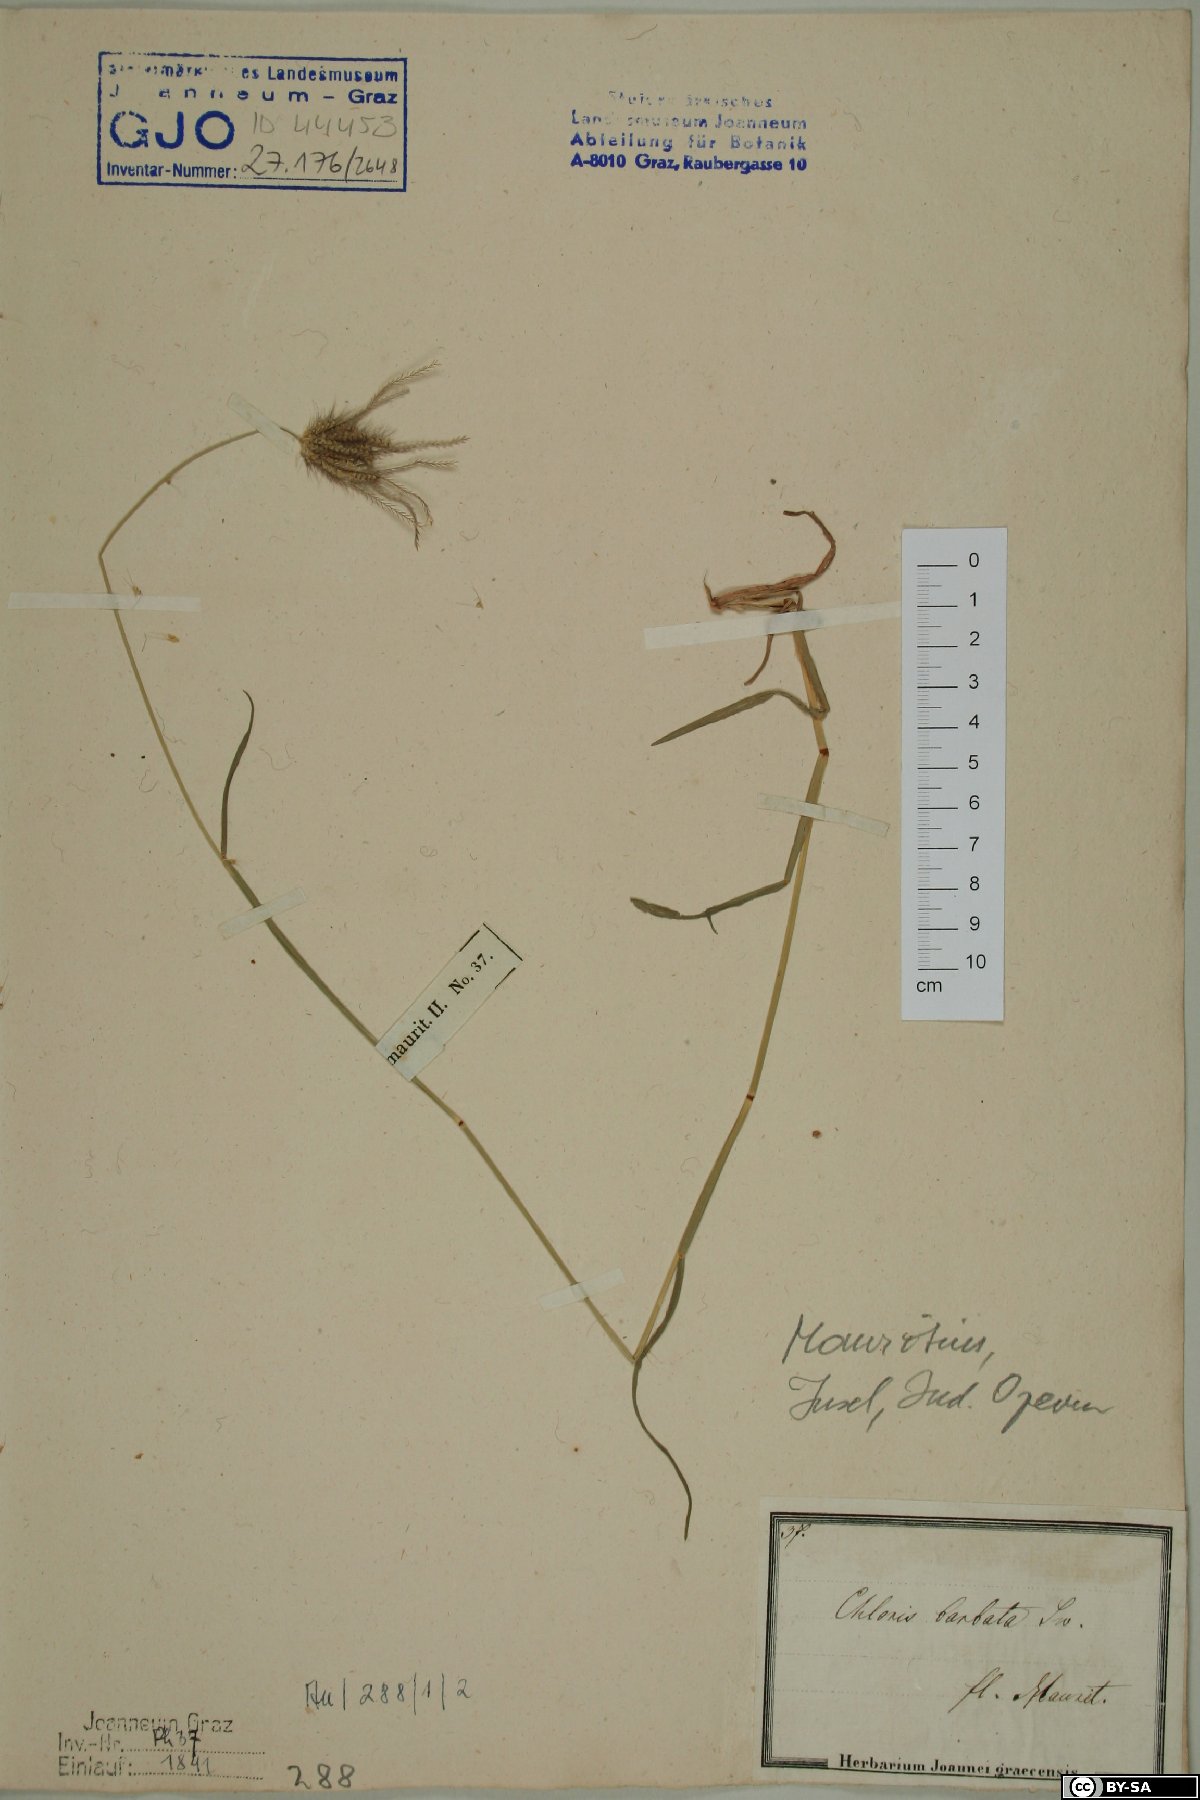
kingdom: Plantae
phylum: Tracheophyta
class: Liliopsida
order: Poales
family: Poaceae
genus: Chloris
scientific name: Chloris barbata
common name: Swollen fingergrass
